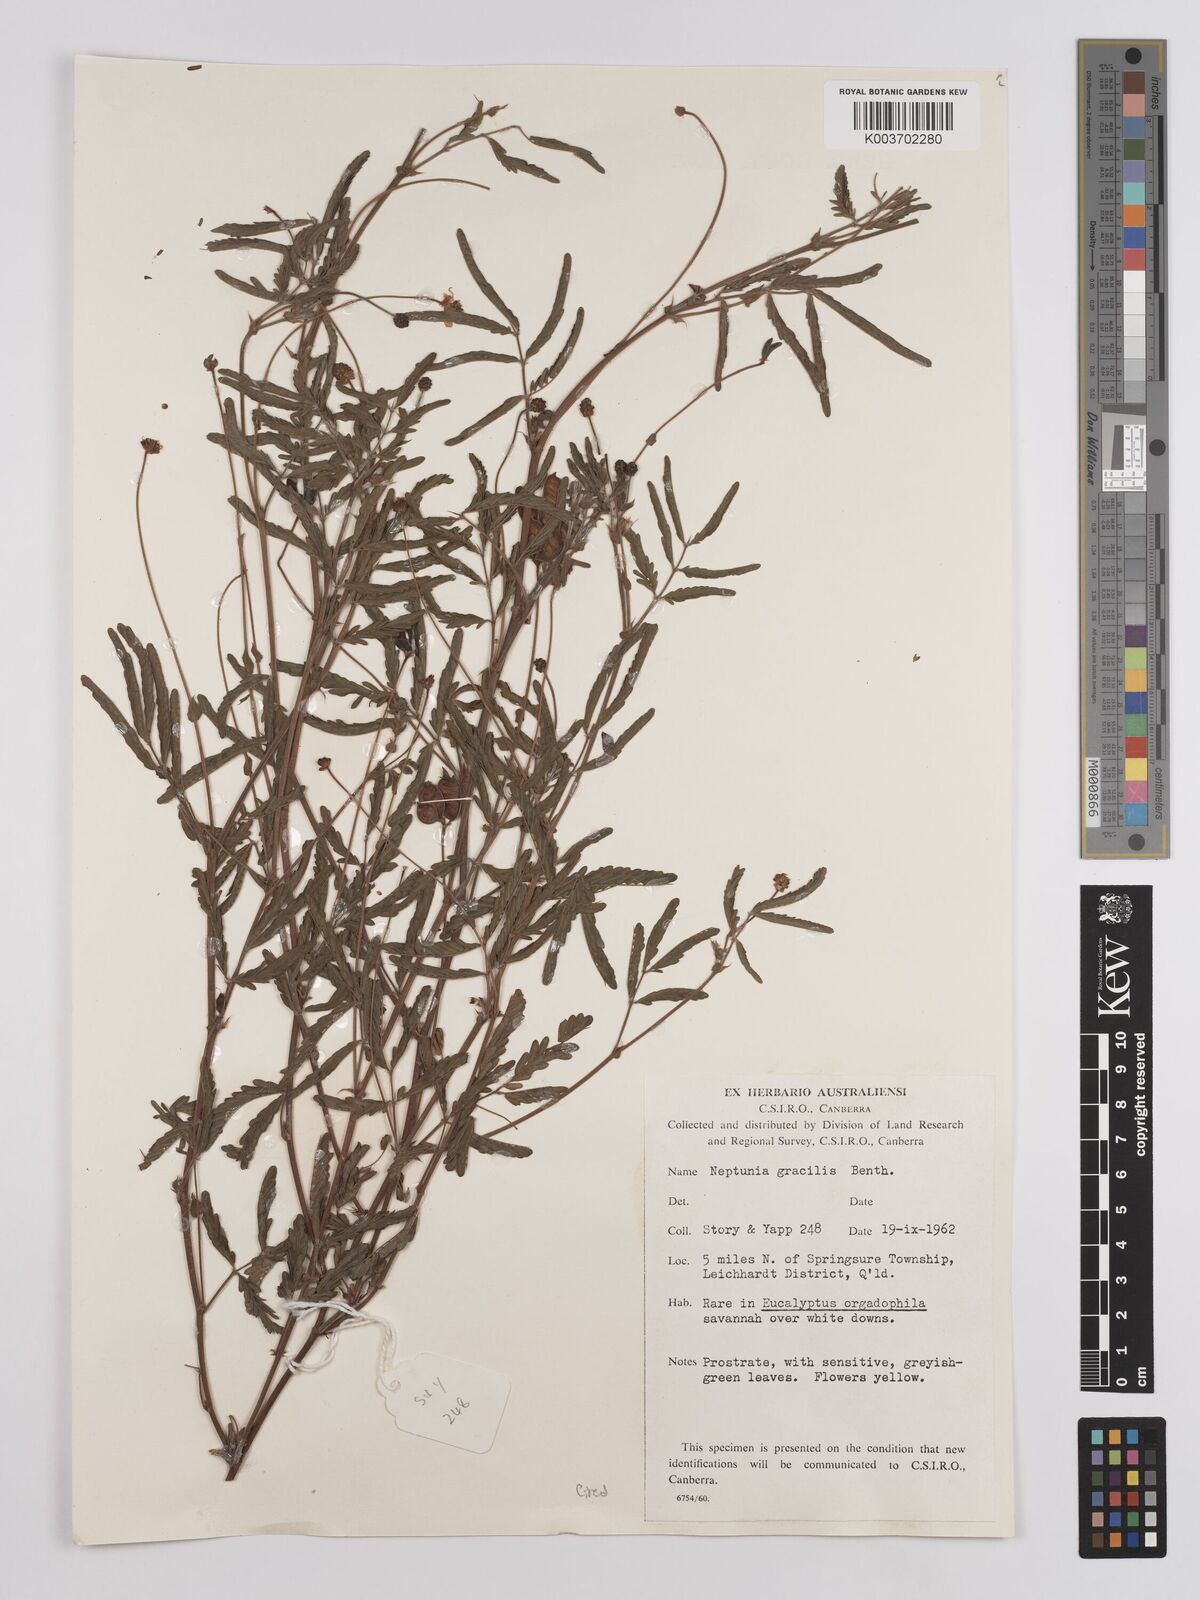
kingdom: Plantae
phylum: Tracheophyta
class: Magnoliopsida
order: Fabales
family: Fabaceae
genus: Neptunia
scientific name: Neptunia gracilis
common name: Sensitive-plant
